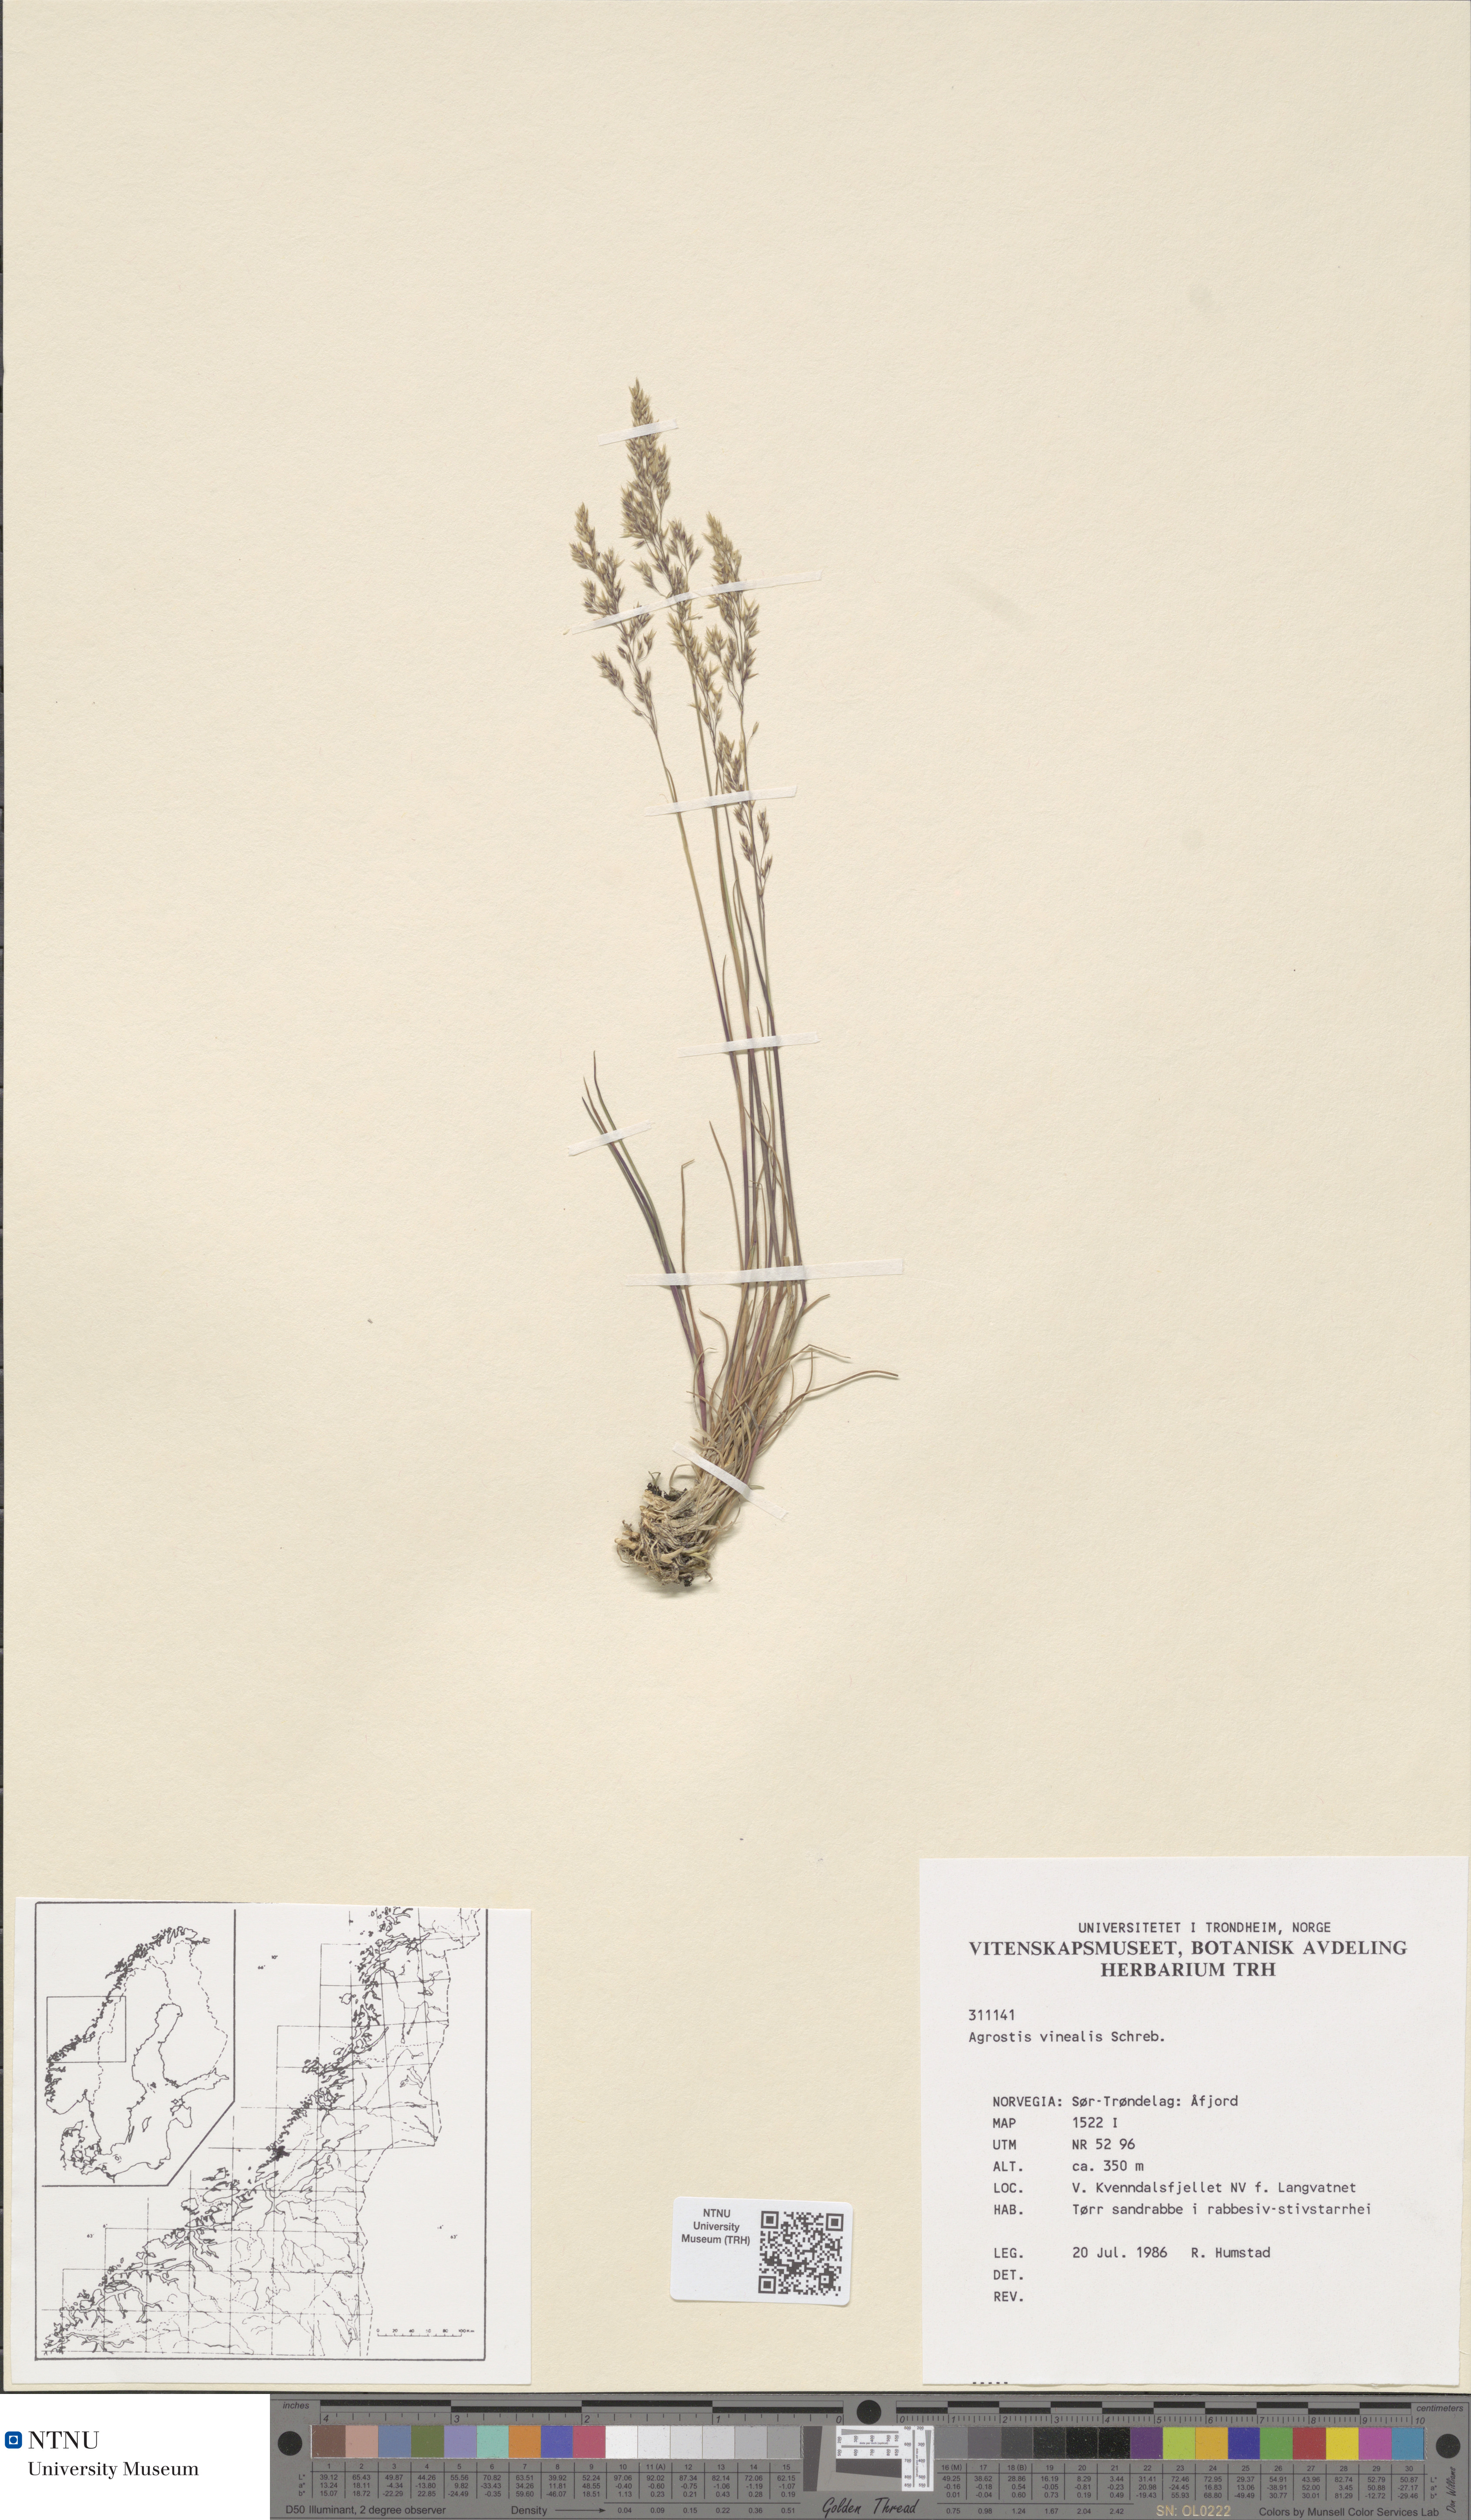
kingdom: Plantae
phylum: Tracheophyta
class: Liliopsida
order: Poales
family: Poaceae
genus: Agrostis
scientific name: Agrostis vinealis
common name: Brown bent
